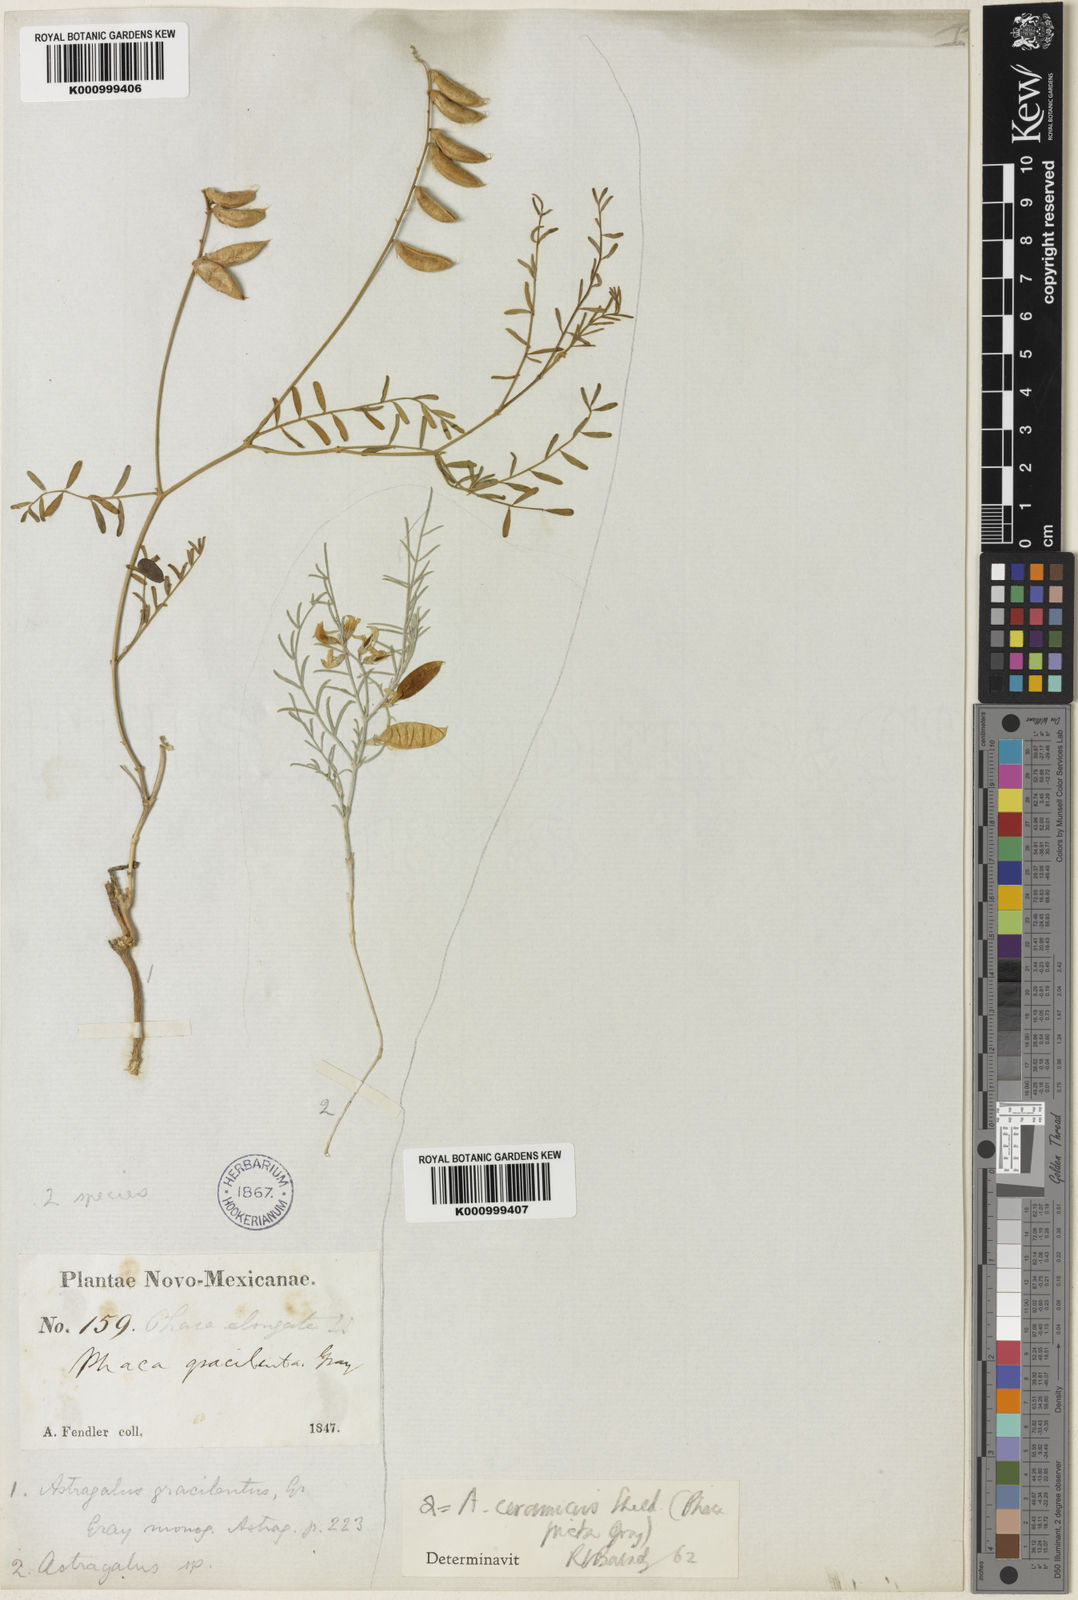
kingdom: Plantae
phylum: Tracheophyta
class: Magnoliopsida
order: Fabales
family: Fabaceae
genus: Astragalus
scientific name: Astragalus flexuosus
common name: Pliant milk-vetch
